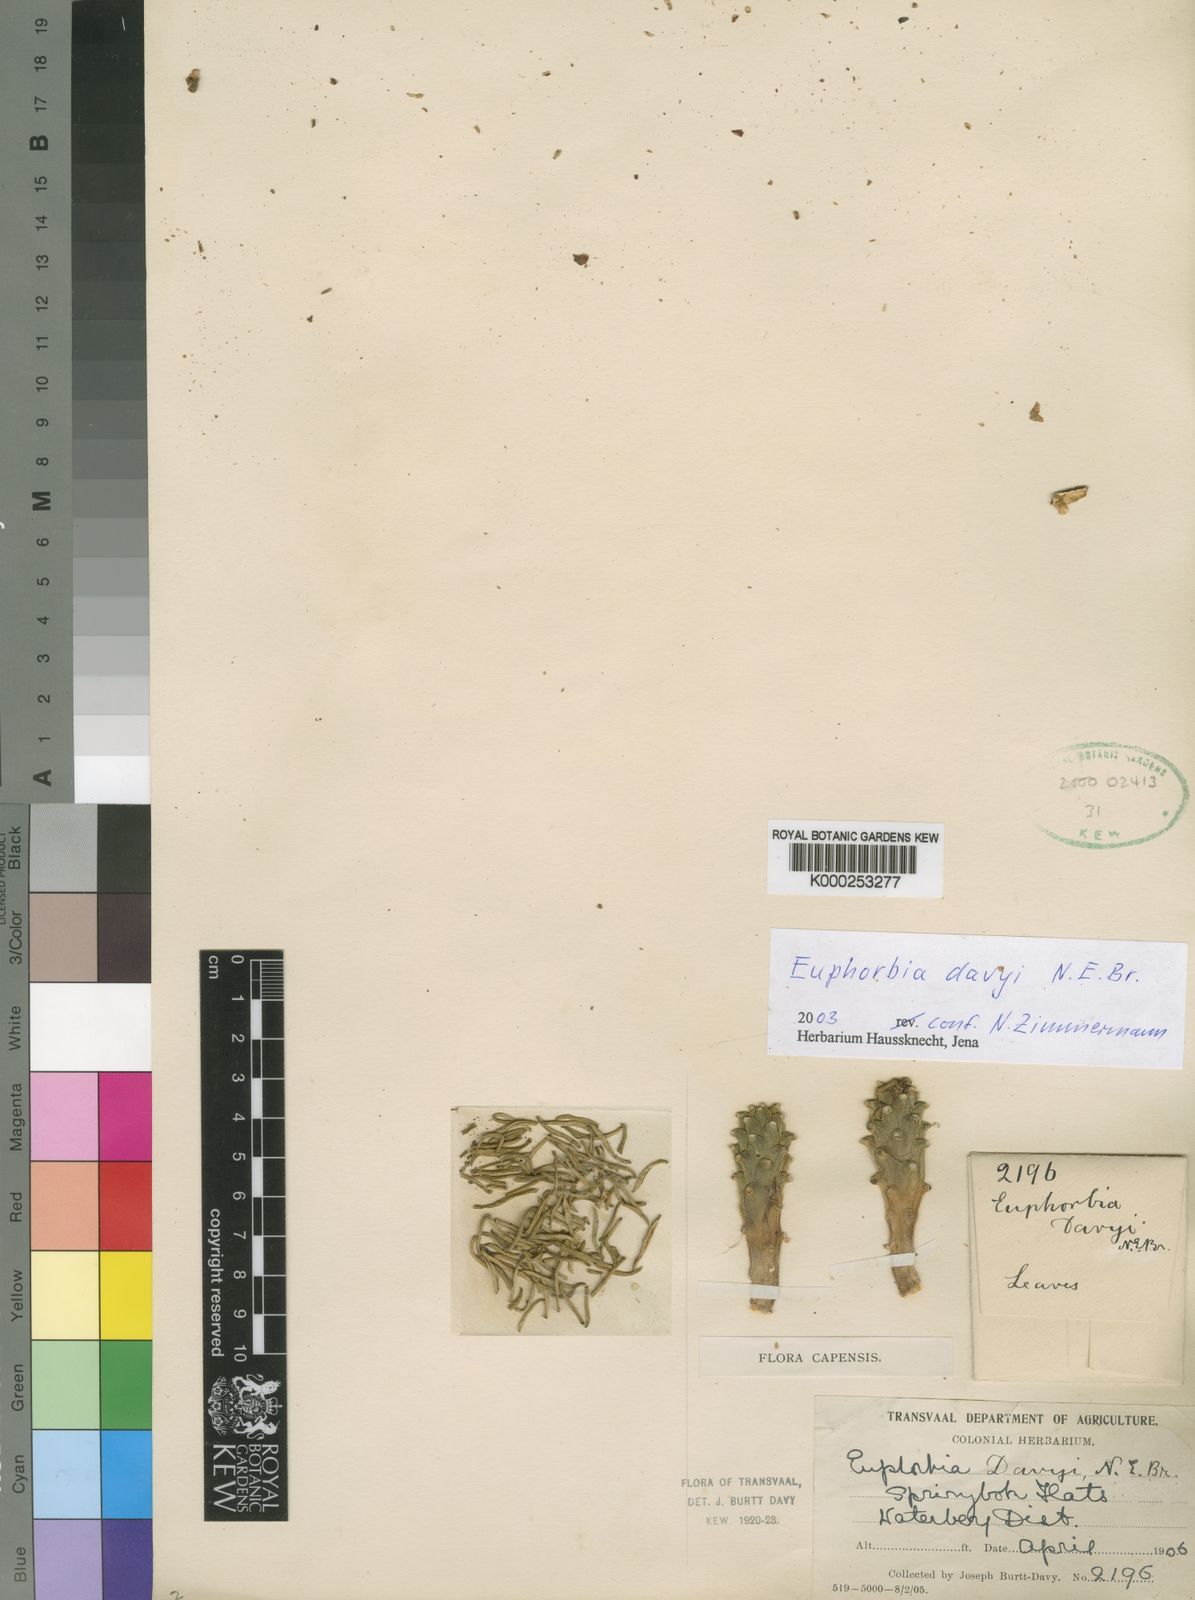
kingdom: Plantae
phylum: Tracheophyta
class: Magnoliopsida
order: Malpighiales
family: Euphorbiaceae
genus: Euphorbia
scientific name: Euphorbia davyi
